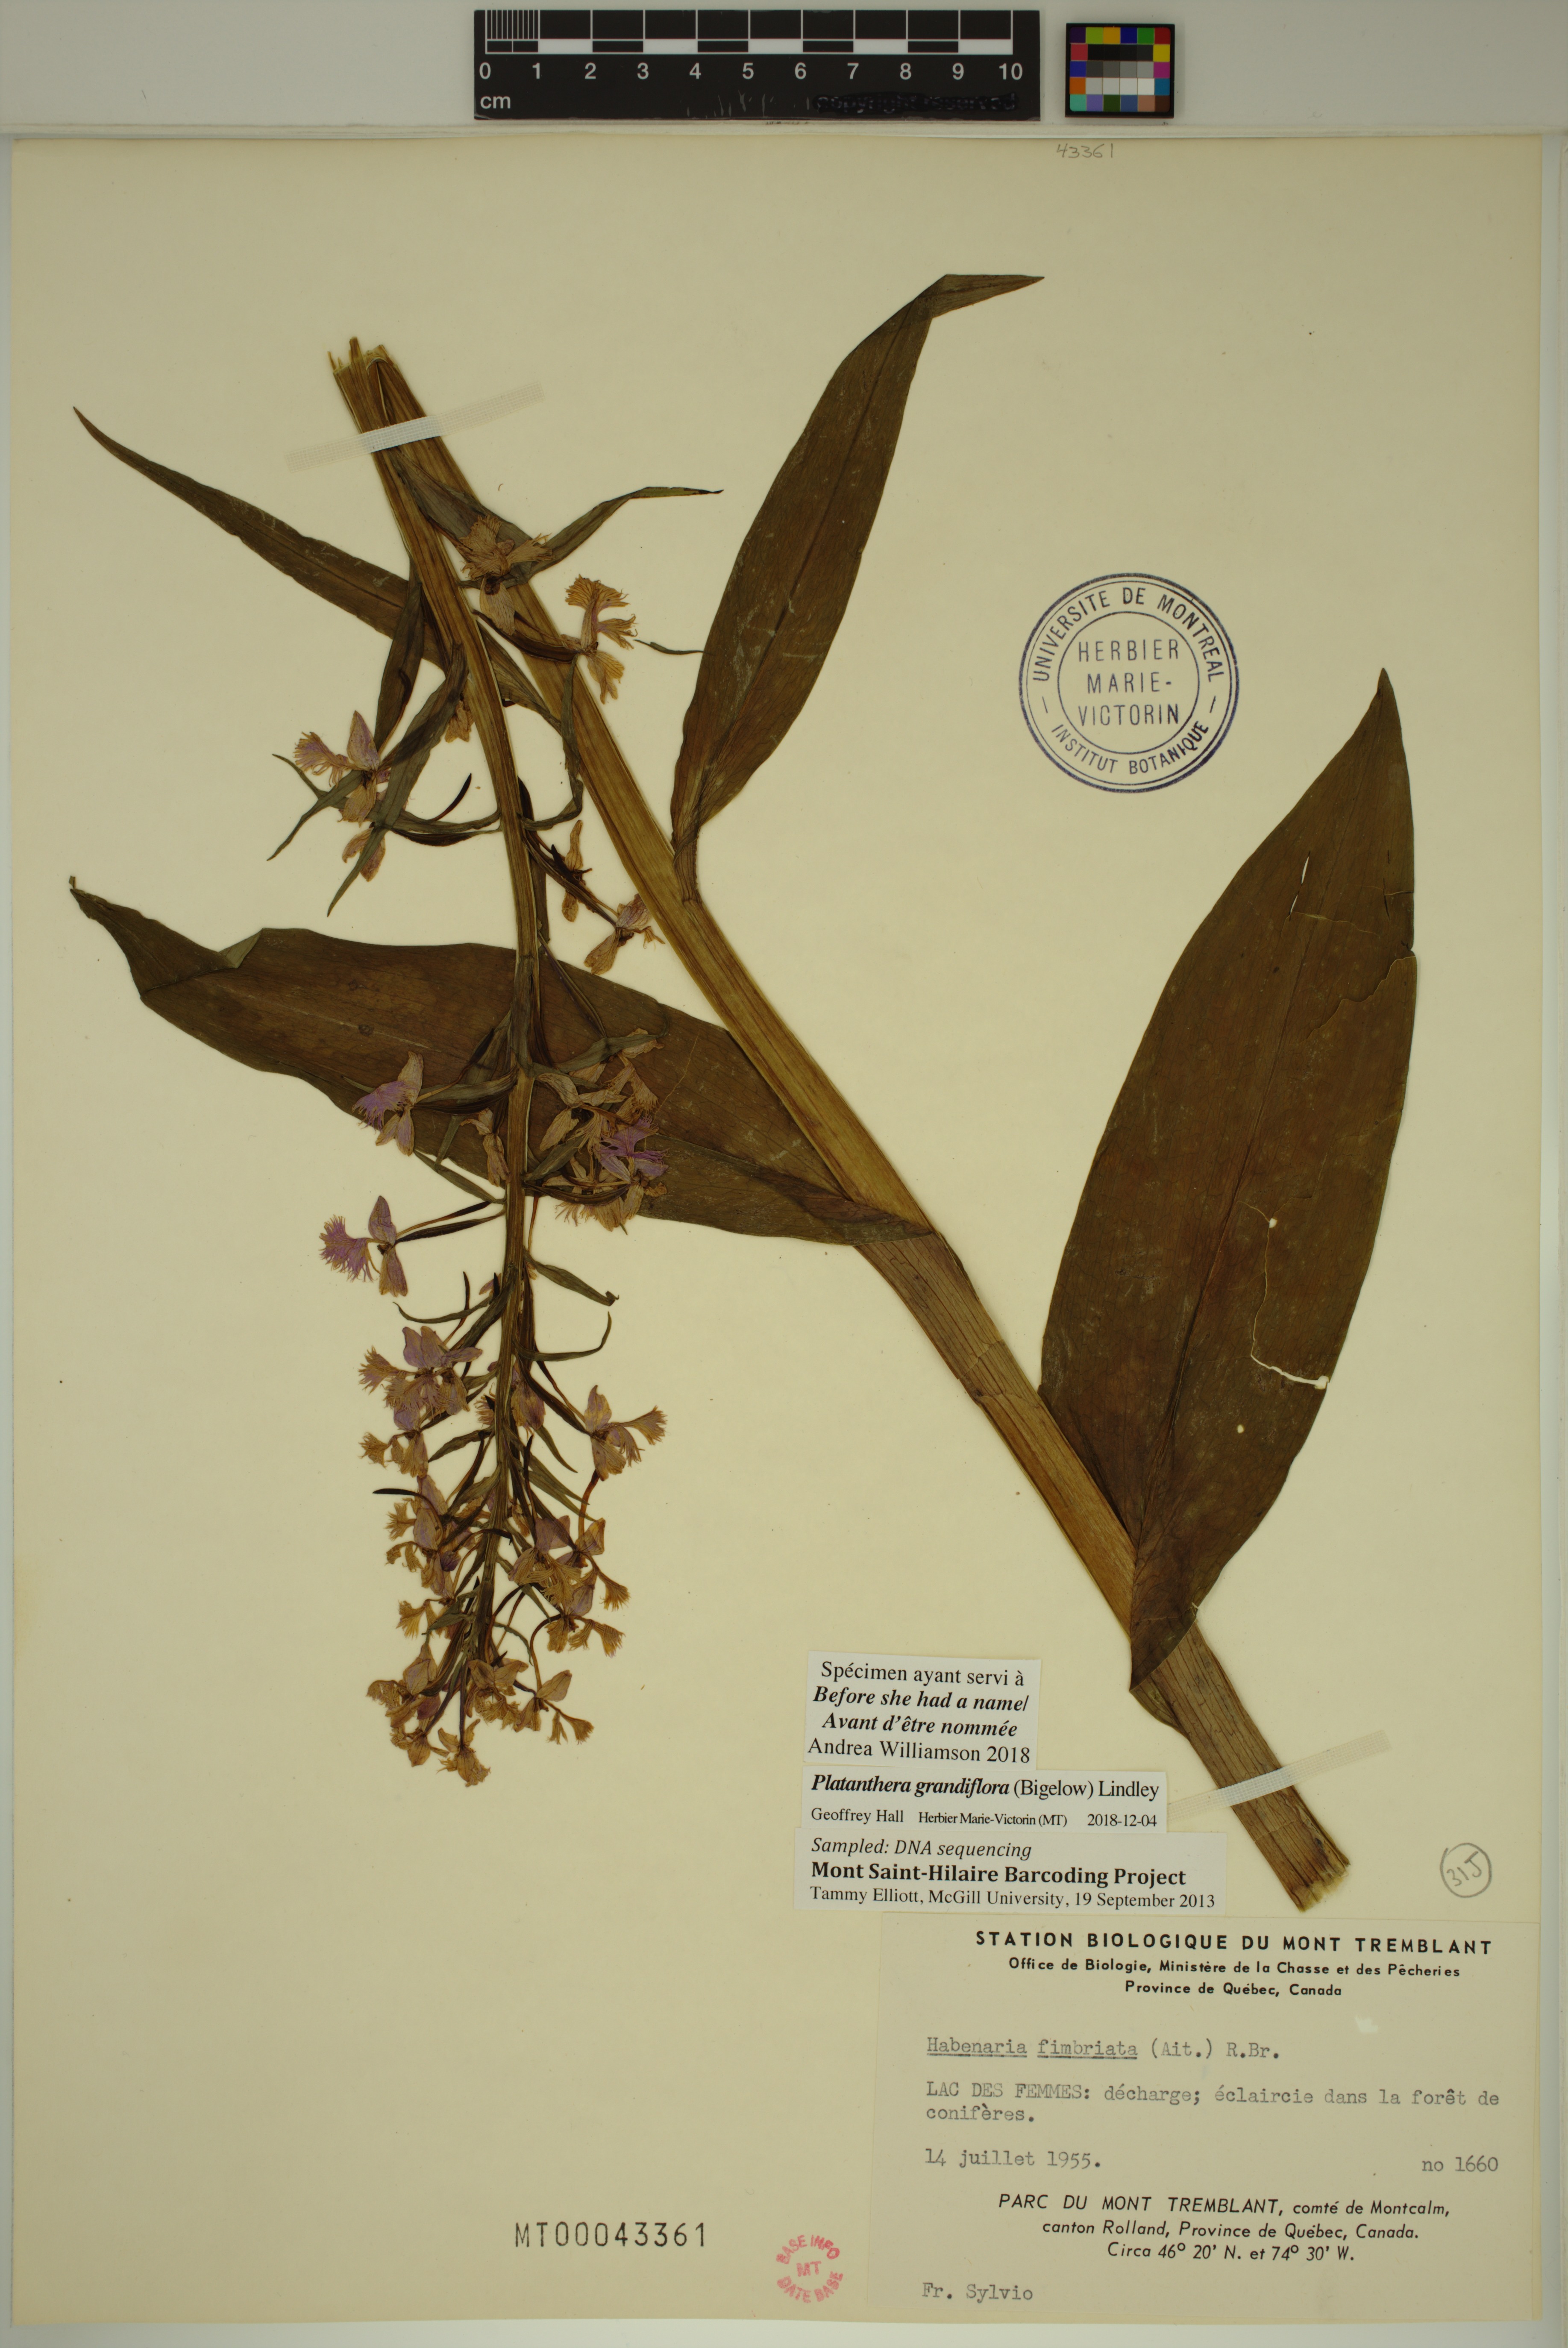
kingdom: Plantae
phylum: Tracheophyta
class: Liliopsida
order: Asparagales
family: Orchidaceae
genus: Platanthera
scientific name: Platanthera grandiflora
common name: Greater purple fringed orchid
